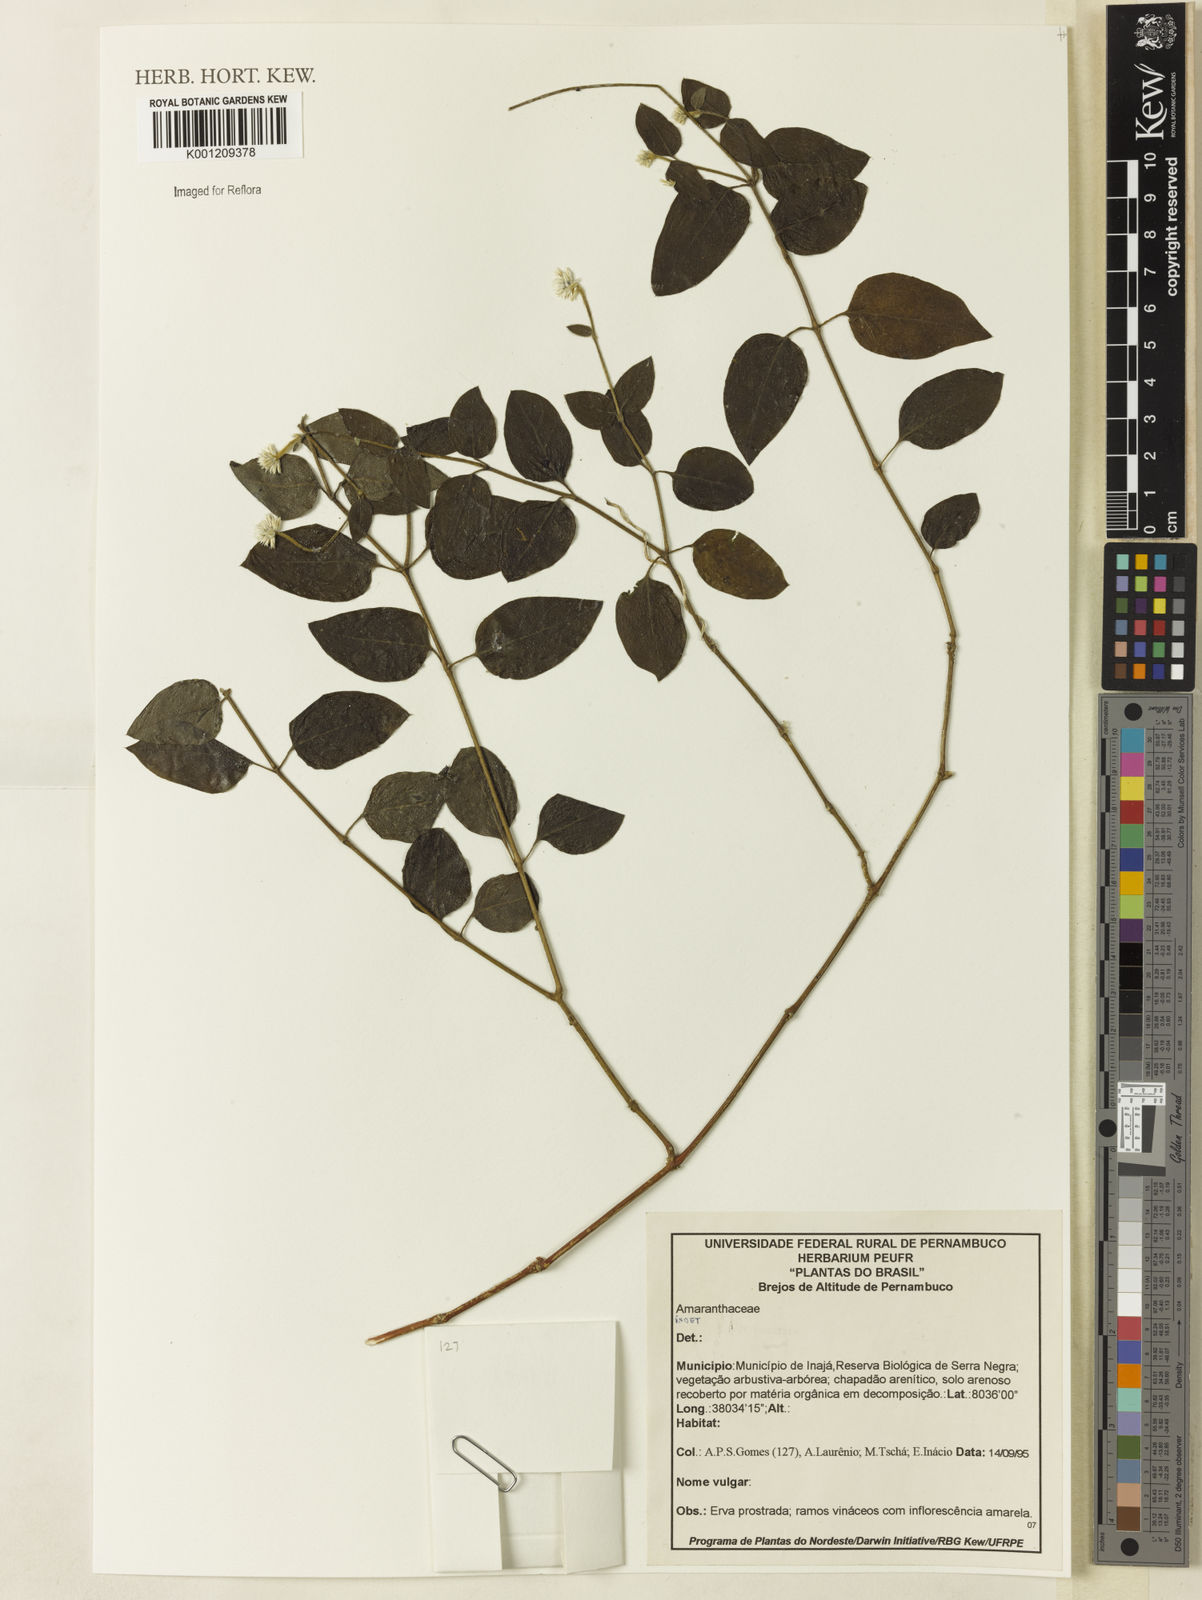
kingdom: Plantae
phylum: Tracheophyta
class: Magnoliopsida
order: Caryophyllales
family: Amaranthaceae
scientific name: Amaranthaceae
